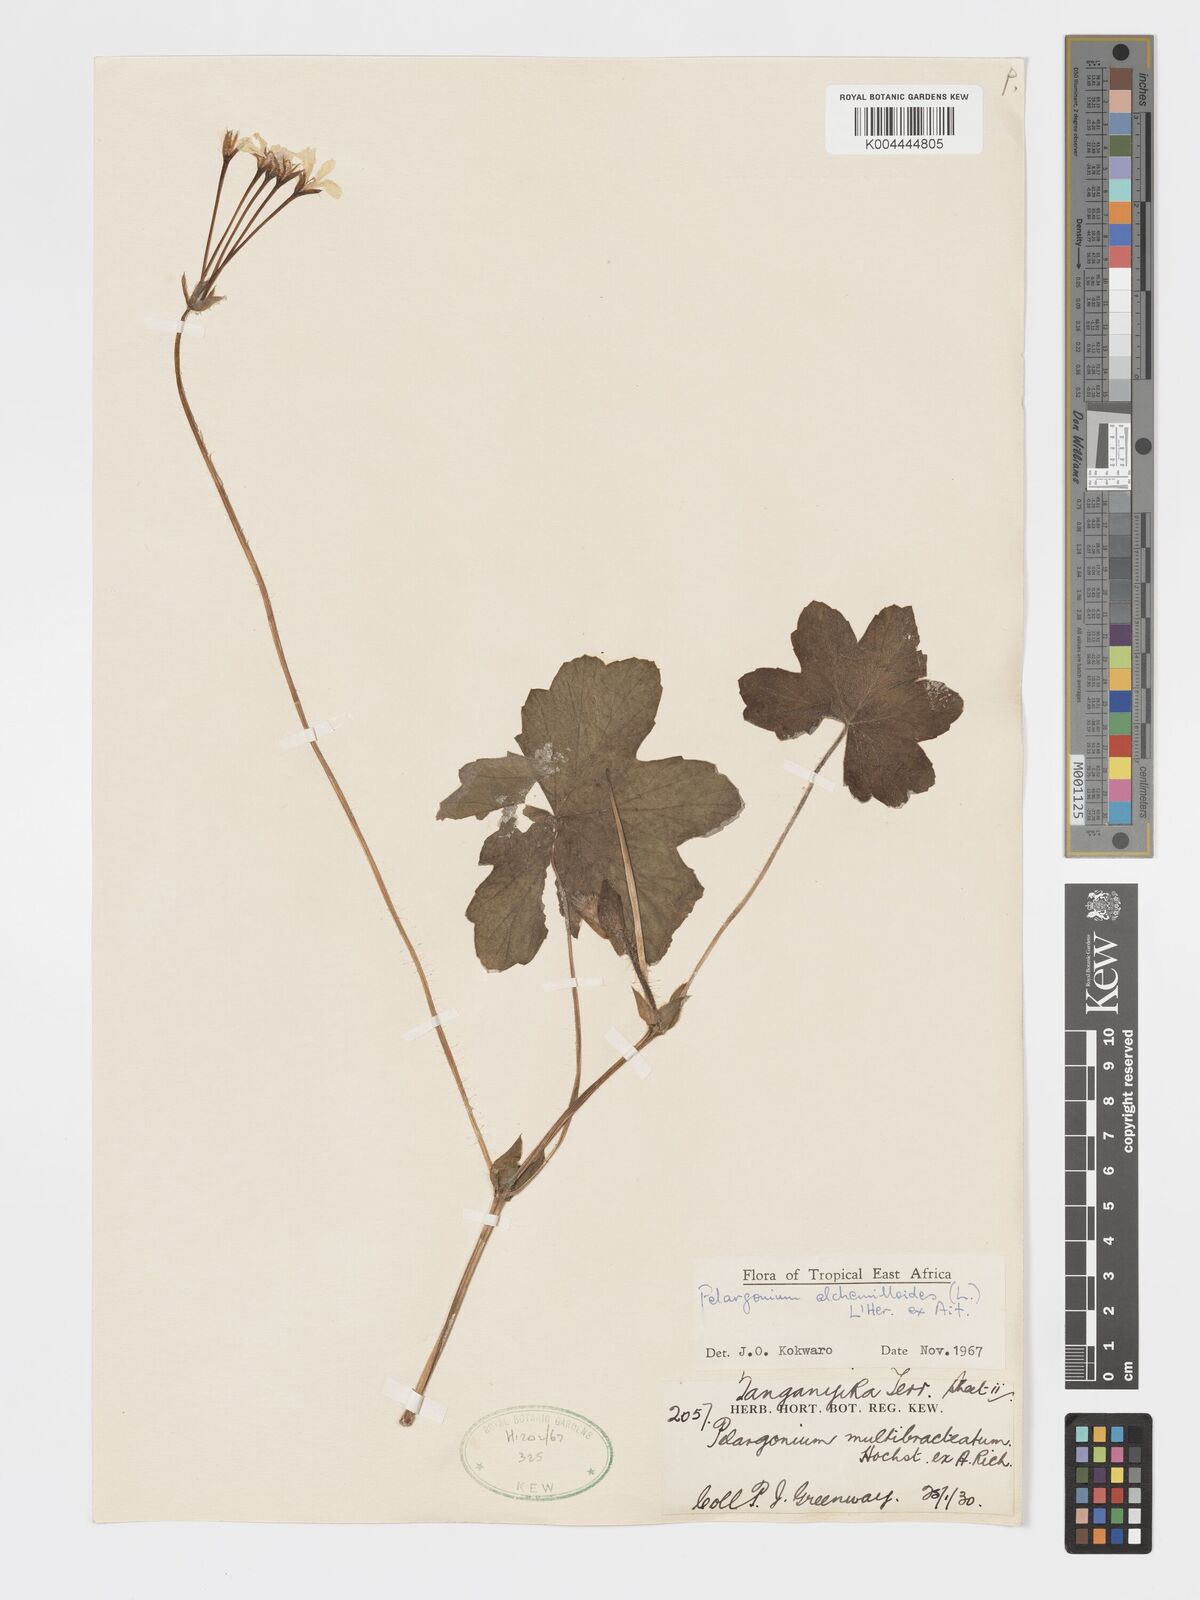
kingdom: Plantae
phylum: Tracheophyta
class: Magnoliopsida
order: Geraniales
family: Geraniaceae
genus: Pelargonium
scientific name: Pelargonium alchemilloides
